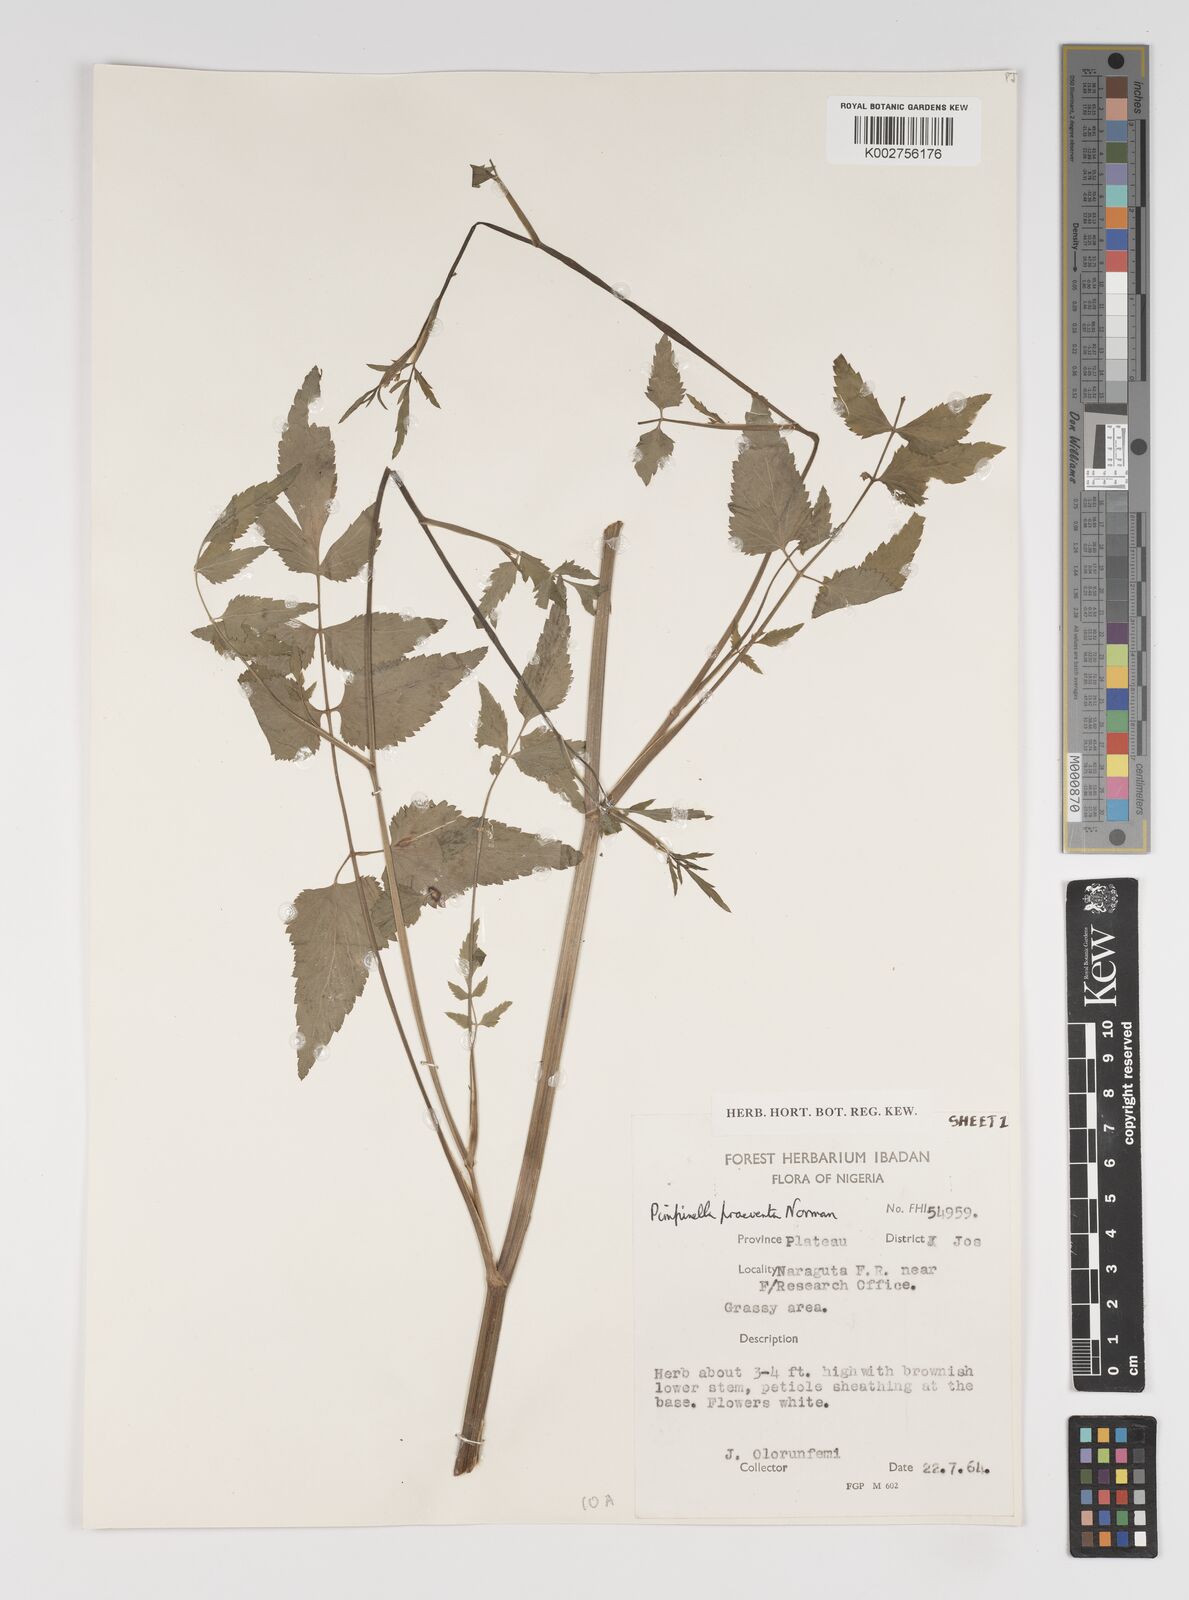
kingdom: Plantae
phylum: Tracheophyta
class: Magnoliopsida
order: Apiales
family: Apiaceae
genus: Pimpinella
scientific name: Pimpinella hirtella
